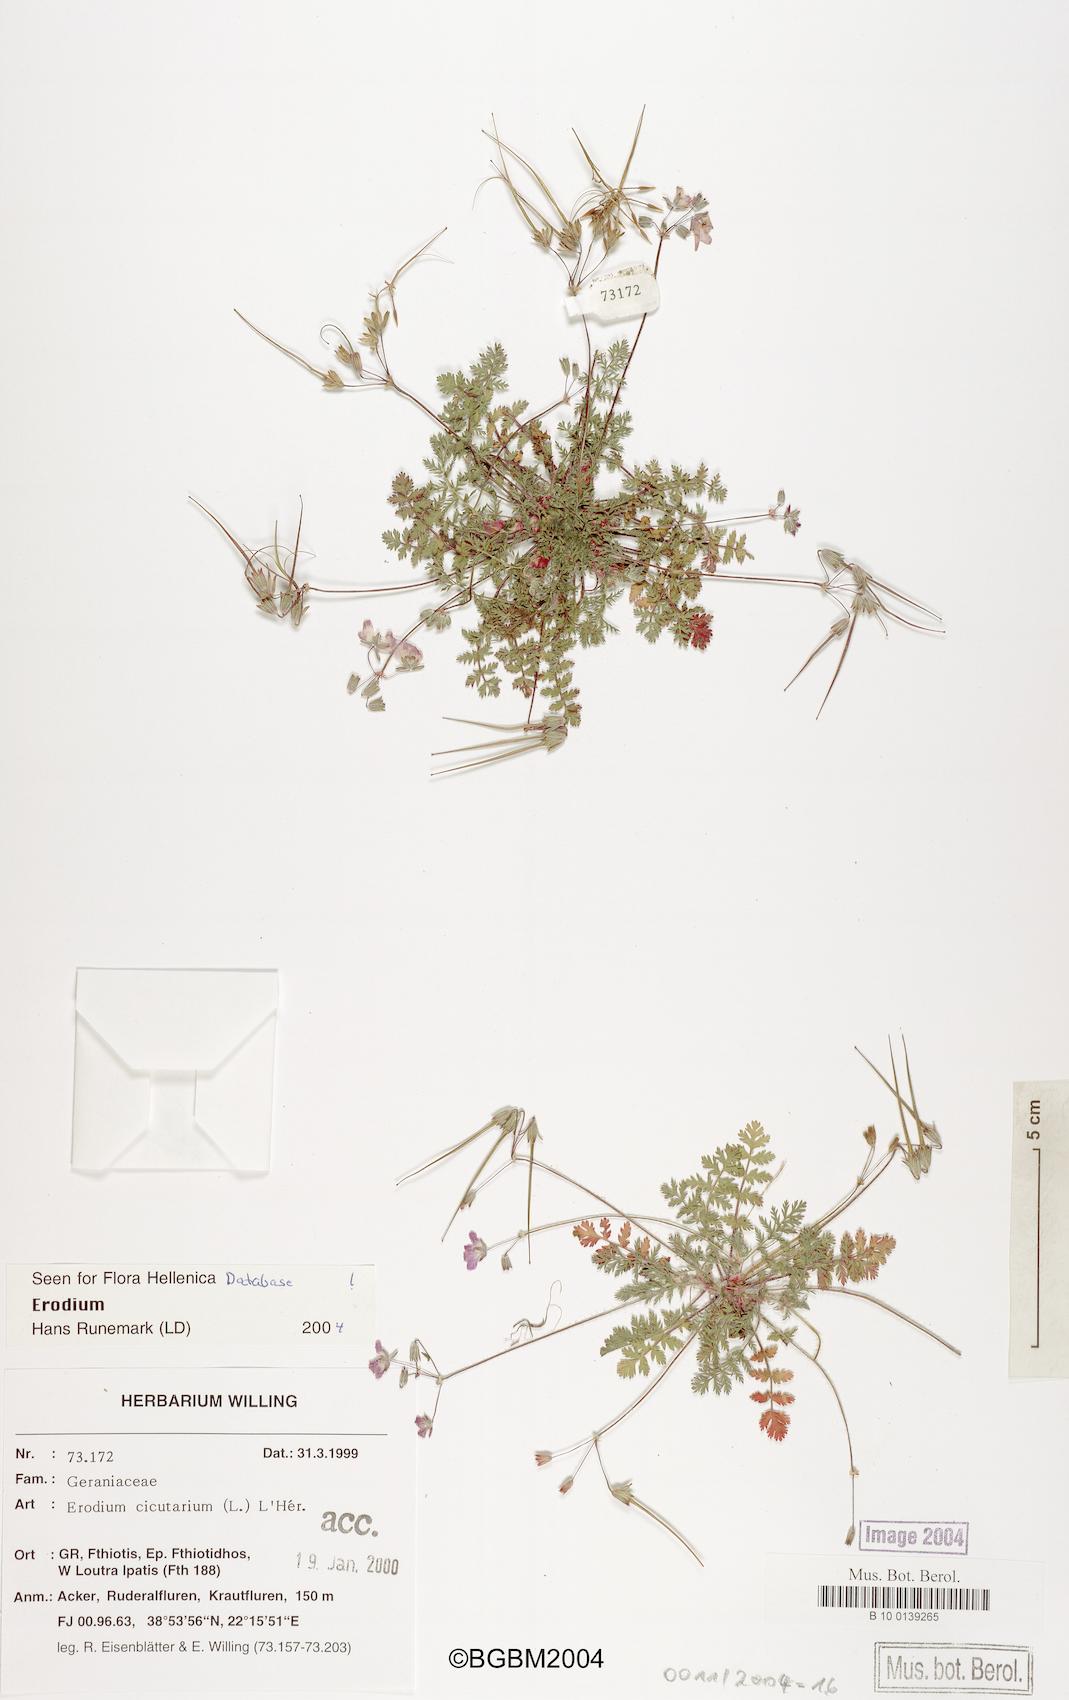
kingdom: Plantae
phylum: Tracheophyta
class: Magnoliopsida
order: Geraniales
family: Geraniaceae
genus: Erodium
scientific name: Erodium cicutarium
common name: Common stork's-bill
